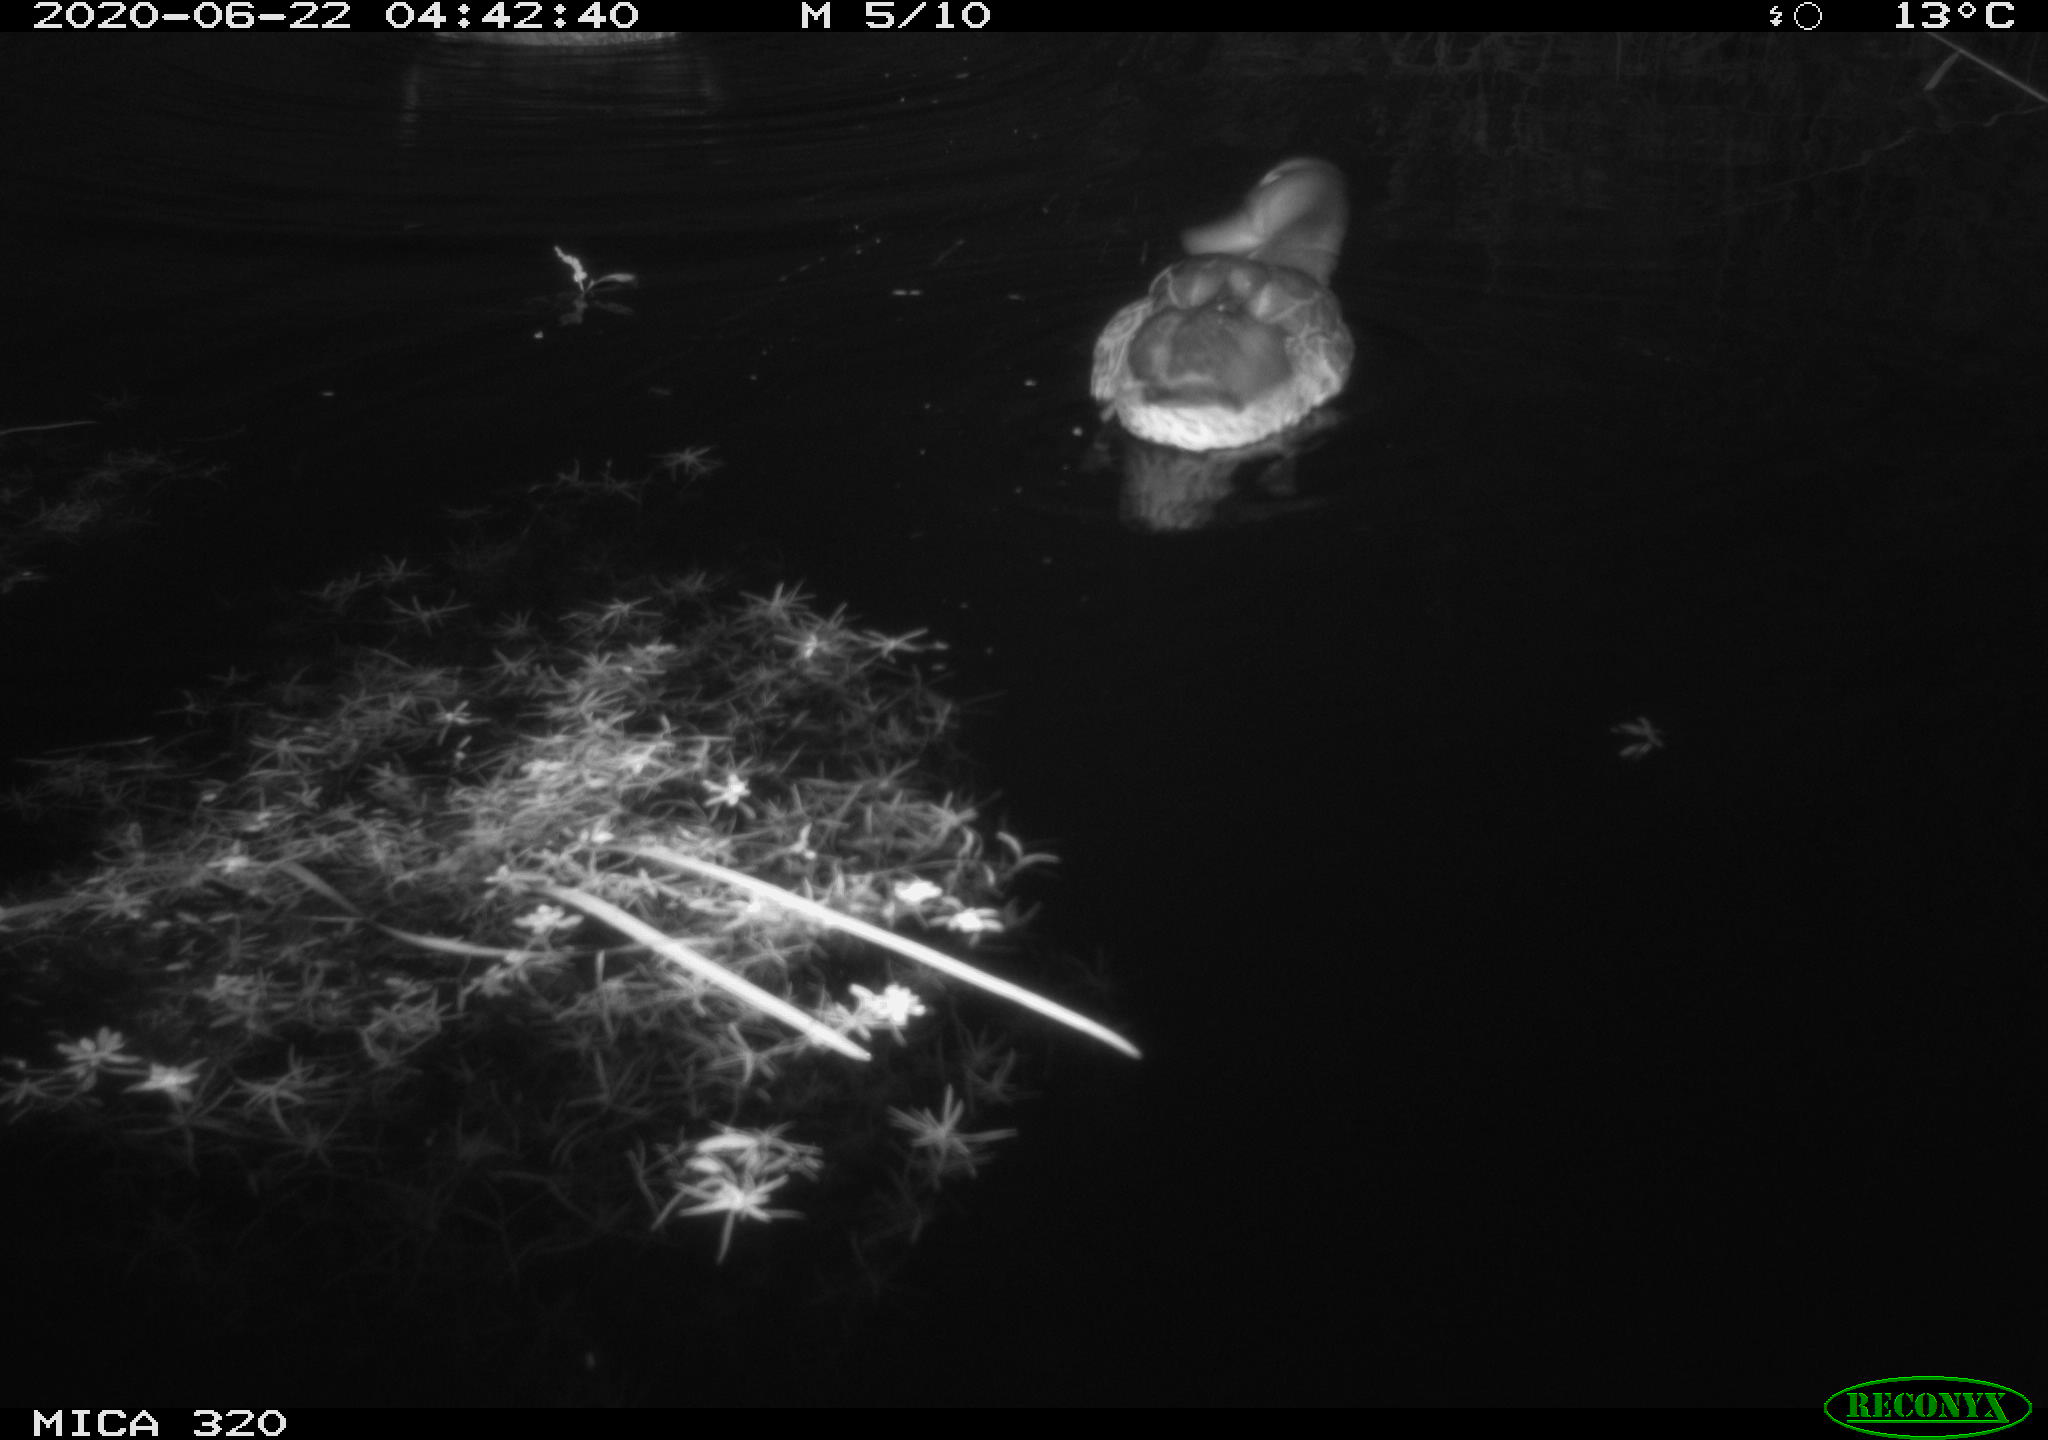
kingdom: Animalia
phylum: Chordata
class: Aves
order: Anseriformes
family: Anatidae
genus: Anas
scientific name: Anas platyrhynchos
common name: Mallard
